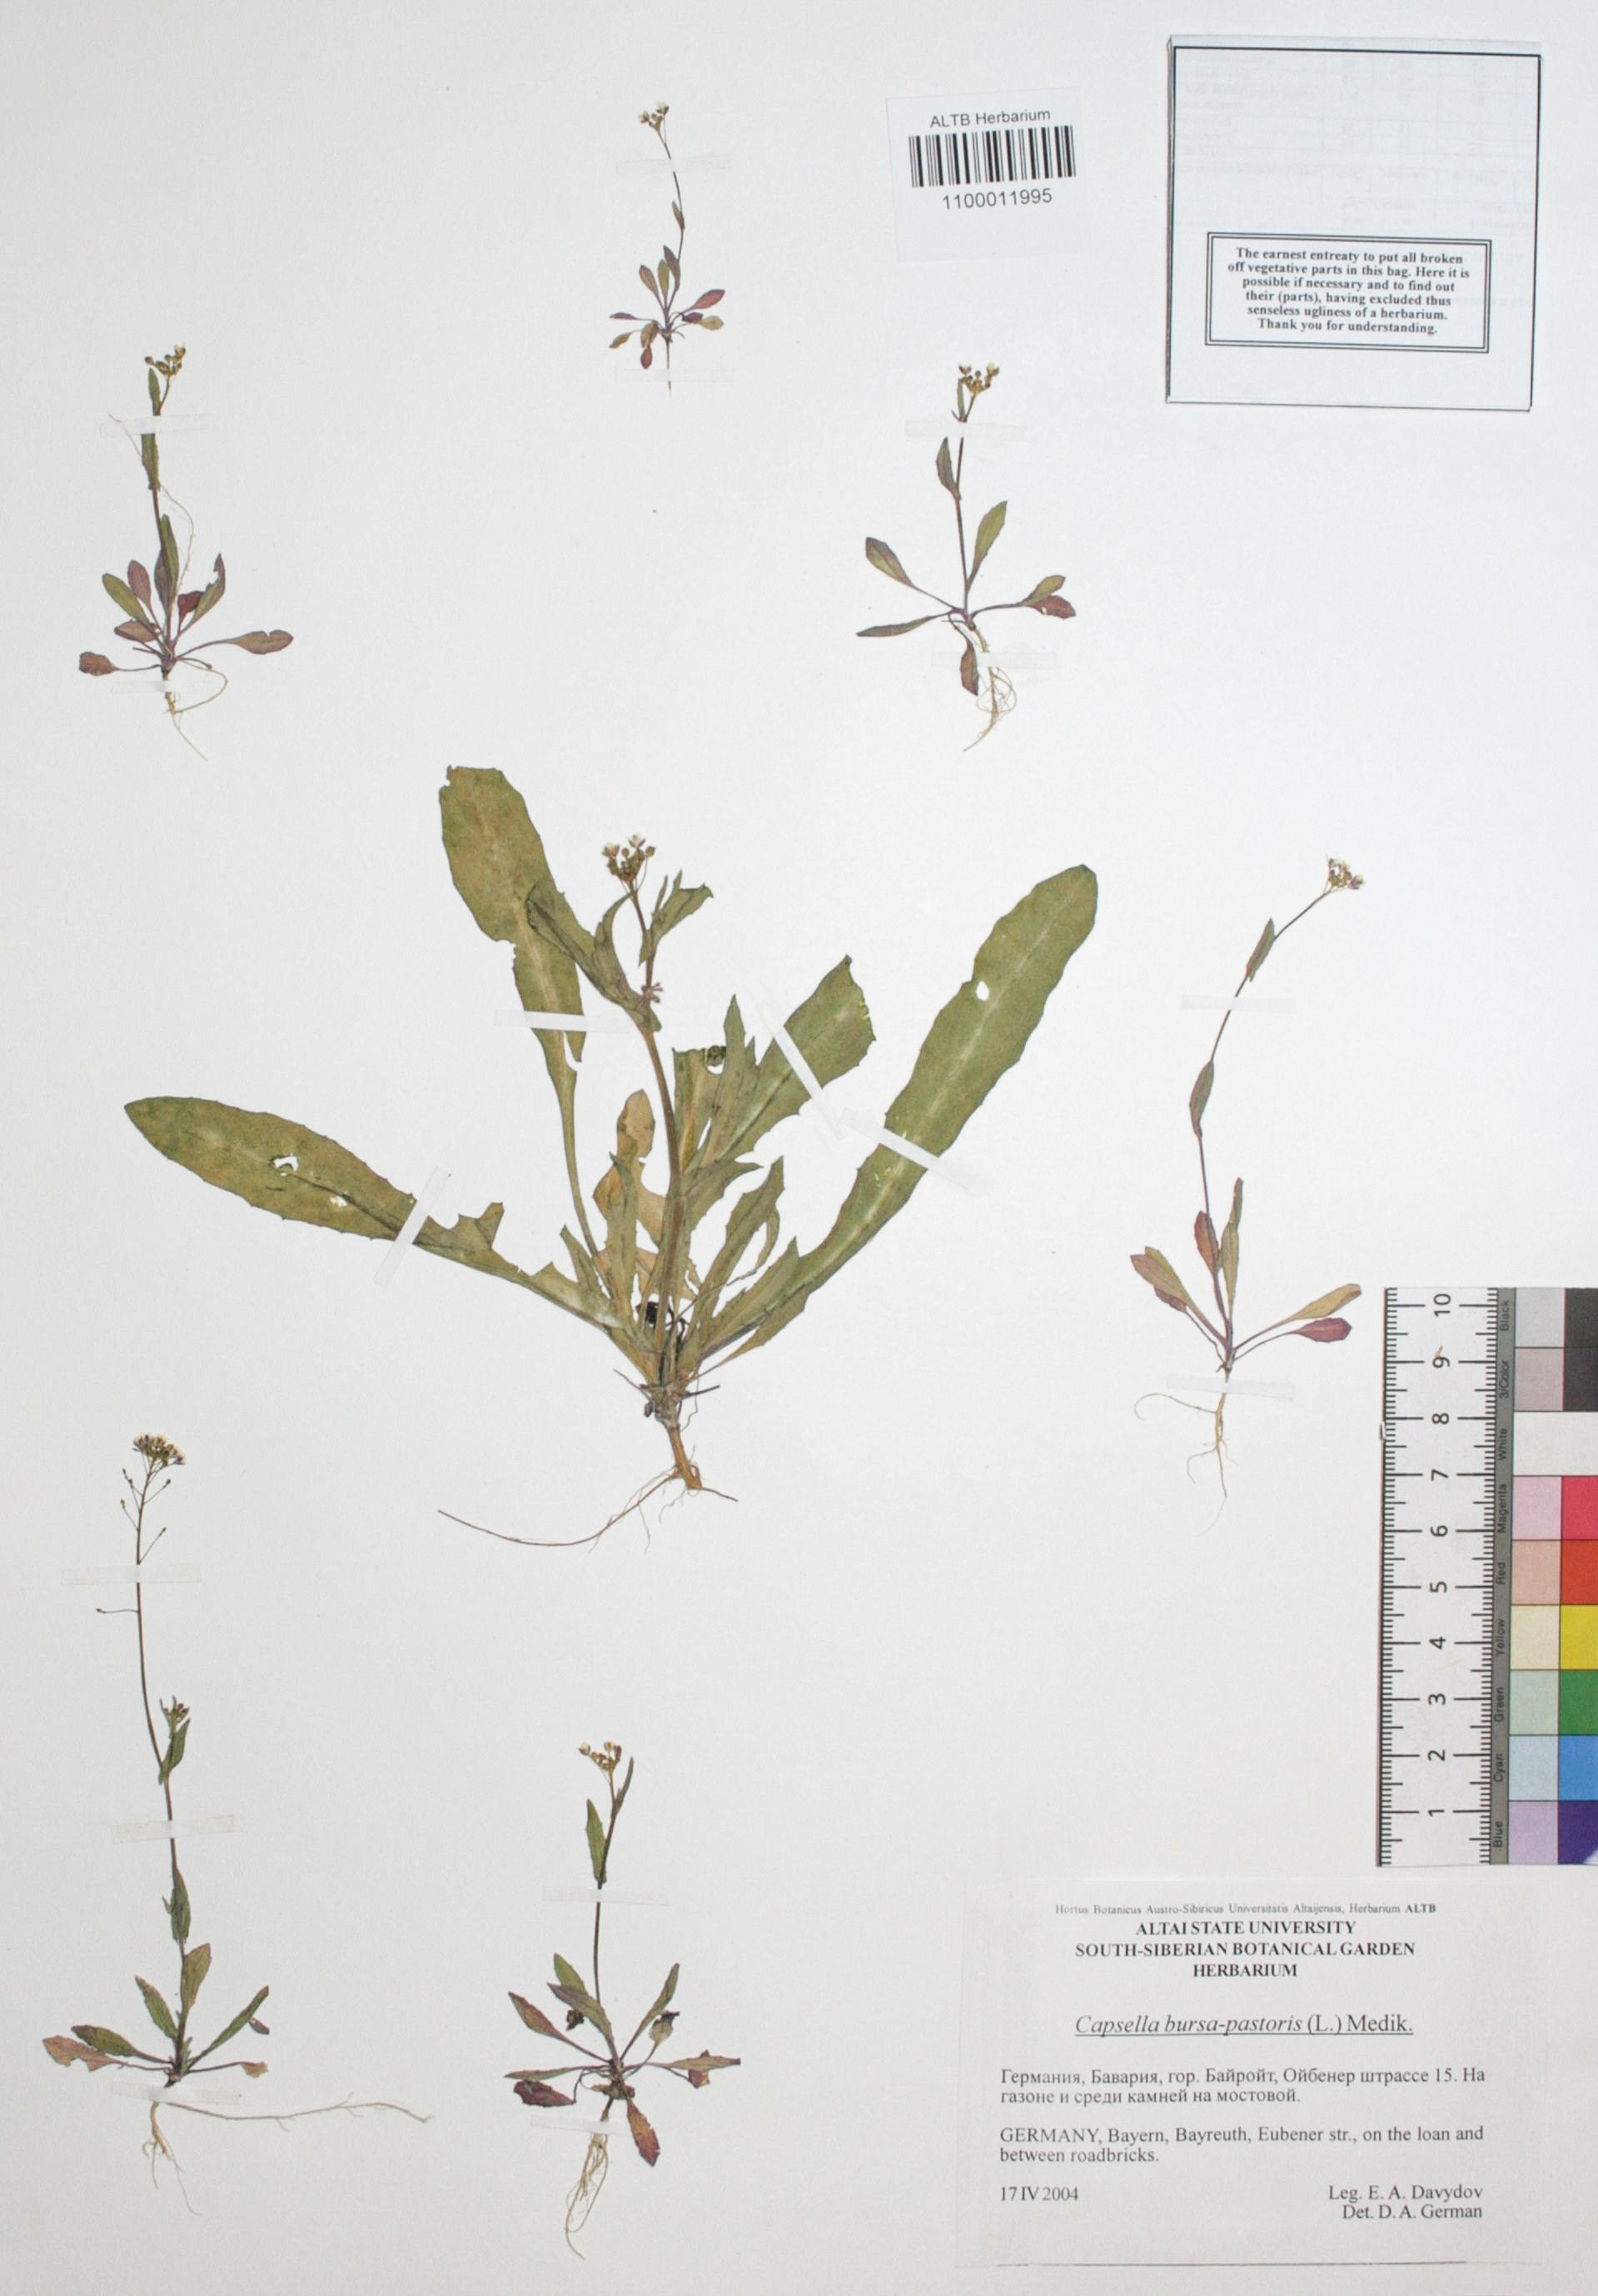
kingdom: Plantae
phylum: Tracheophyta
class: Magnoliopsida
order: Brassicales
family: Brassicaceae
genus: Capsella
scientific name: Capsella bursa-pastoris
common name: Shepherd's purse
